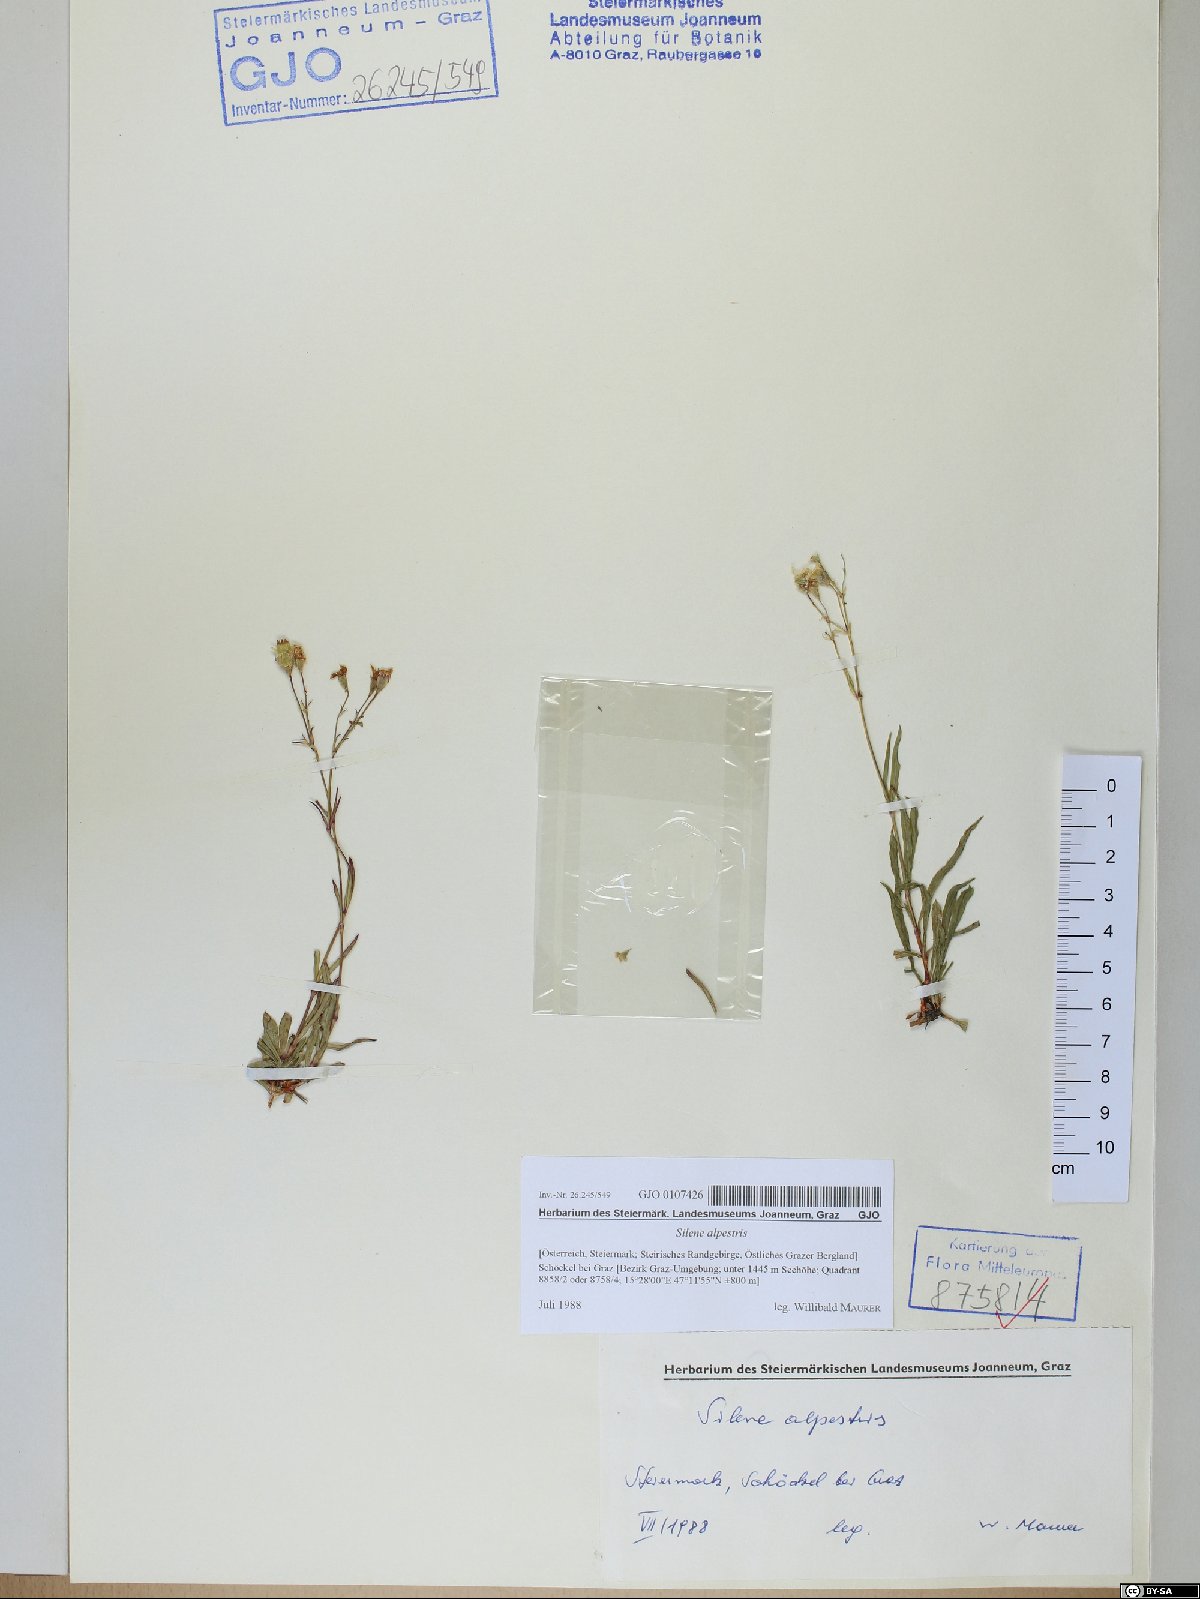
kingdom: Plantae
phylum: Tracheophyta
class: Magnoliopsida
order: Caryophyllales
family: Caryophyllaceae
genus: Heliosperma
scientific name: Heliosperma alpestre
